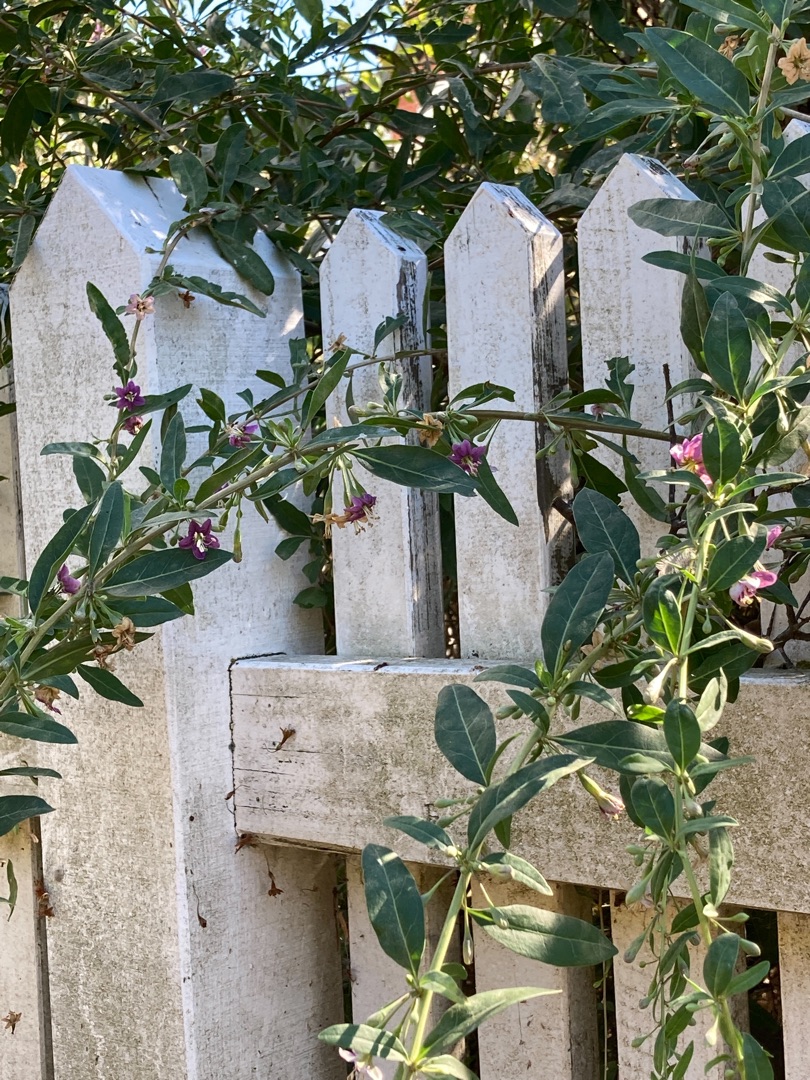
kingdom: Plantae
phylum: Tracheophyta
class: Magnoliopsida
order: Solanales
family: Solanaceae
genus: Lycium
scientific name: Lycium barbarum
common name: Bukketorn
